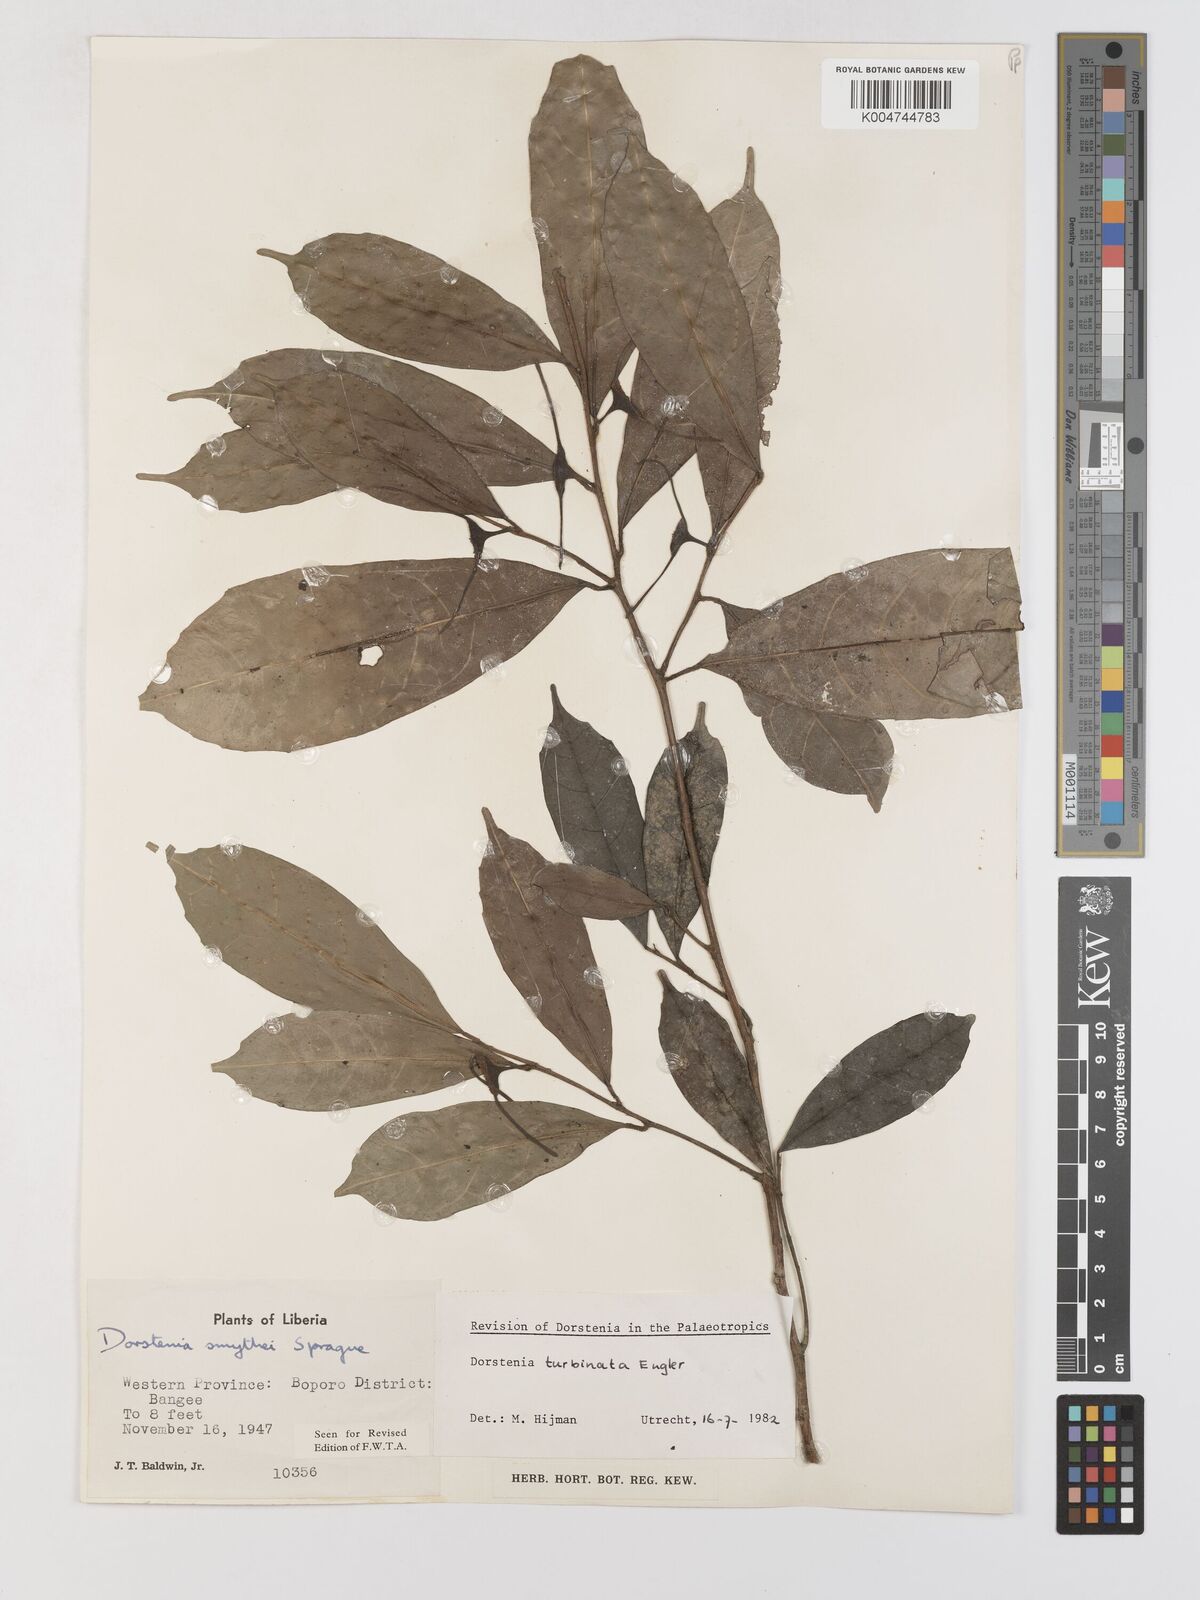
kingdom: Plantae
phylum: Tracheophyta
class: Magnoliopsida
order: Rosales
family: Moraceae
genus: Hijmania
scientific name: Hijmania turbinata
